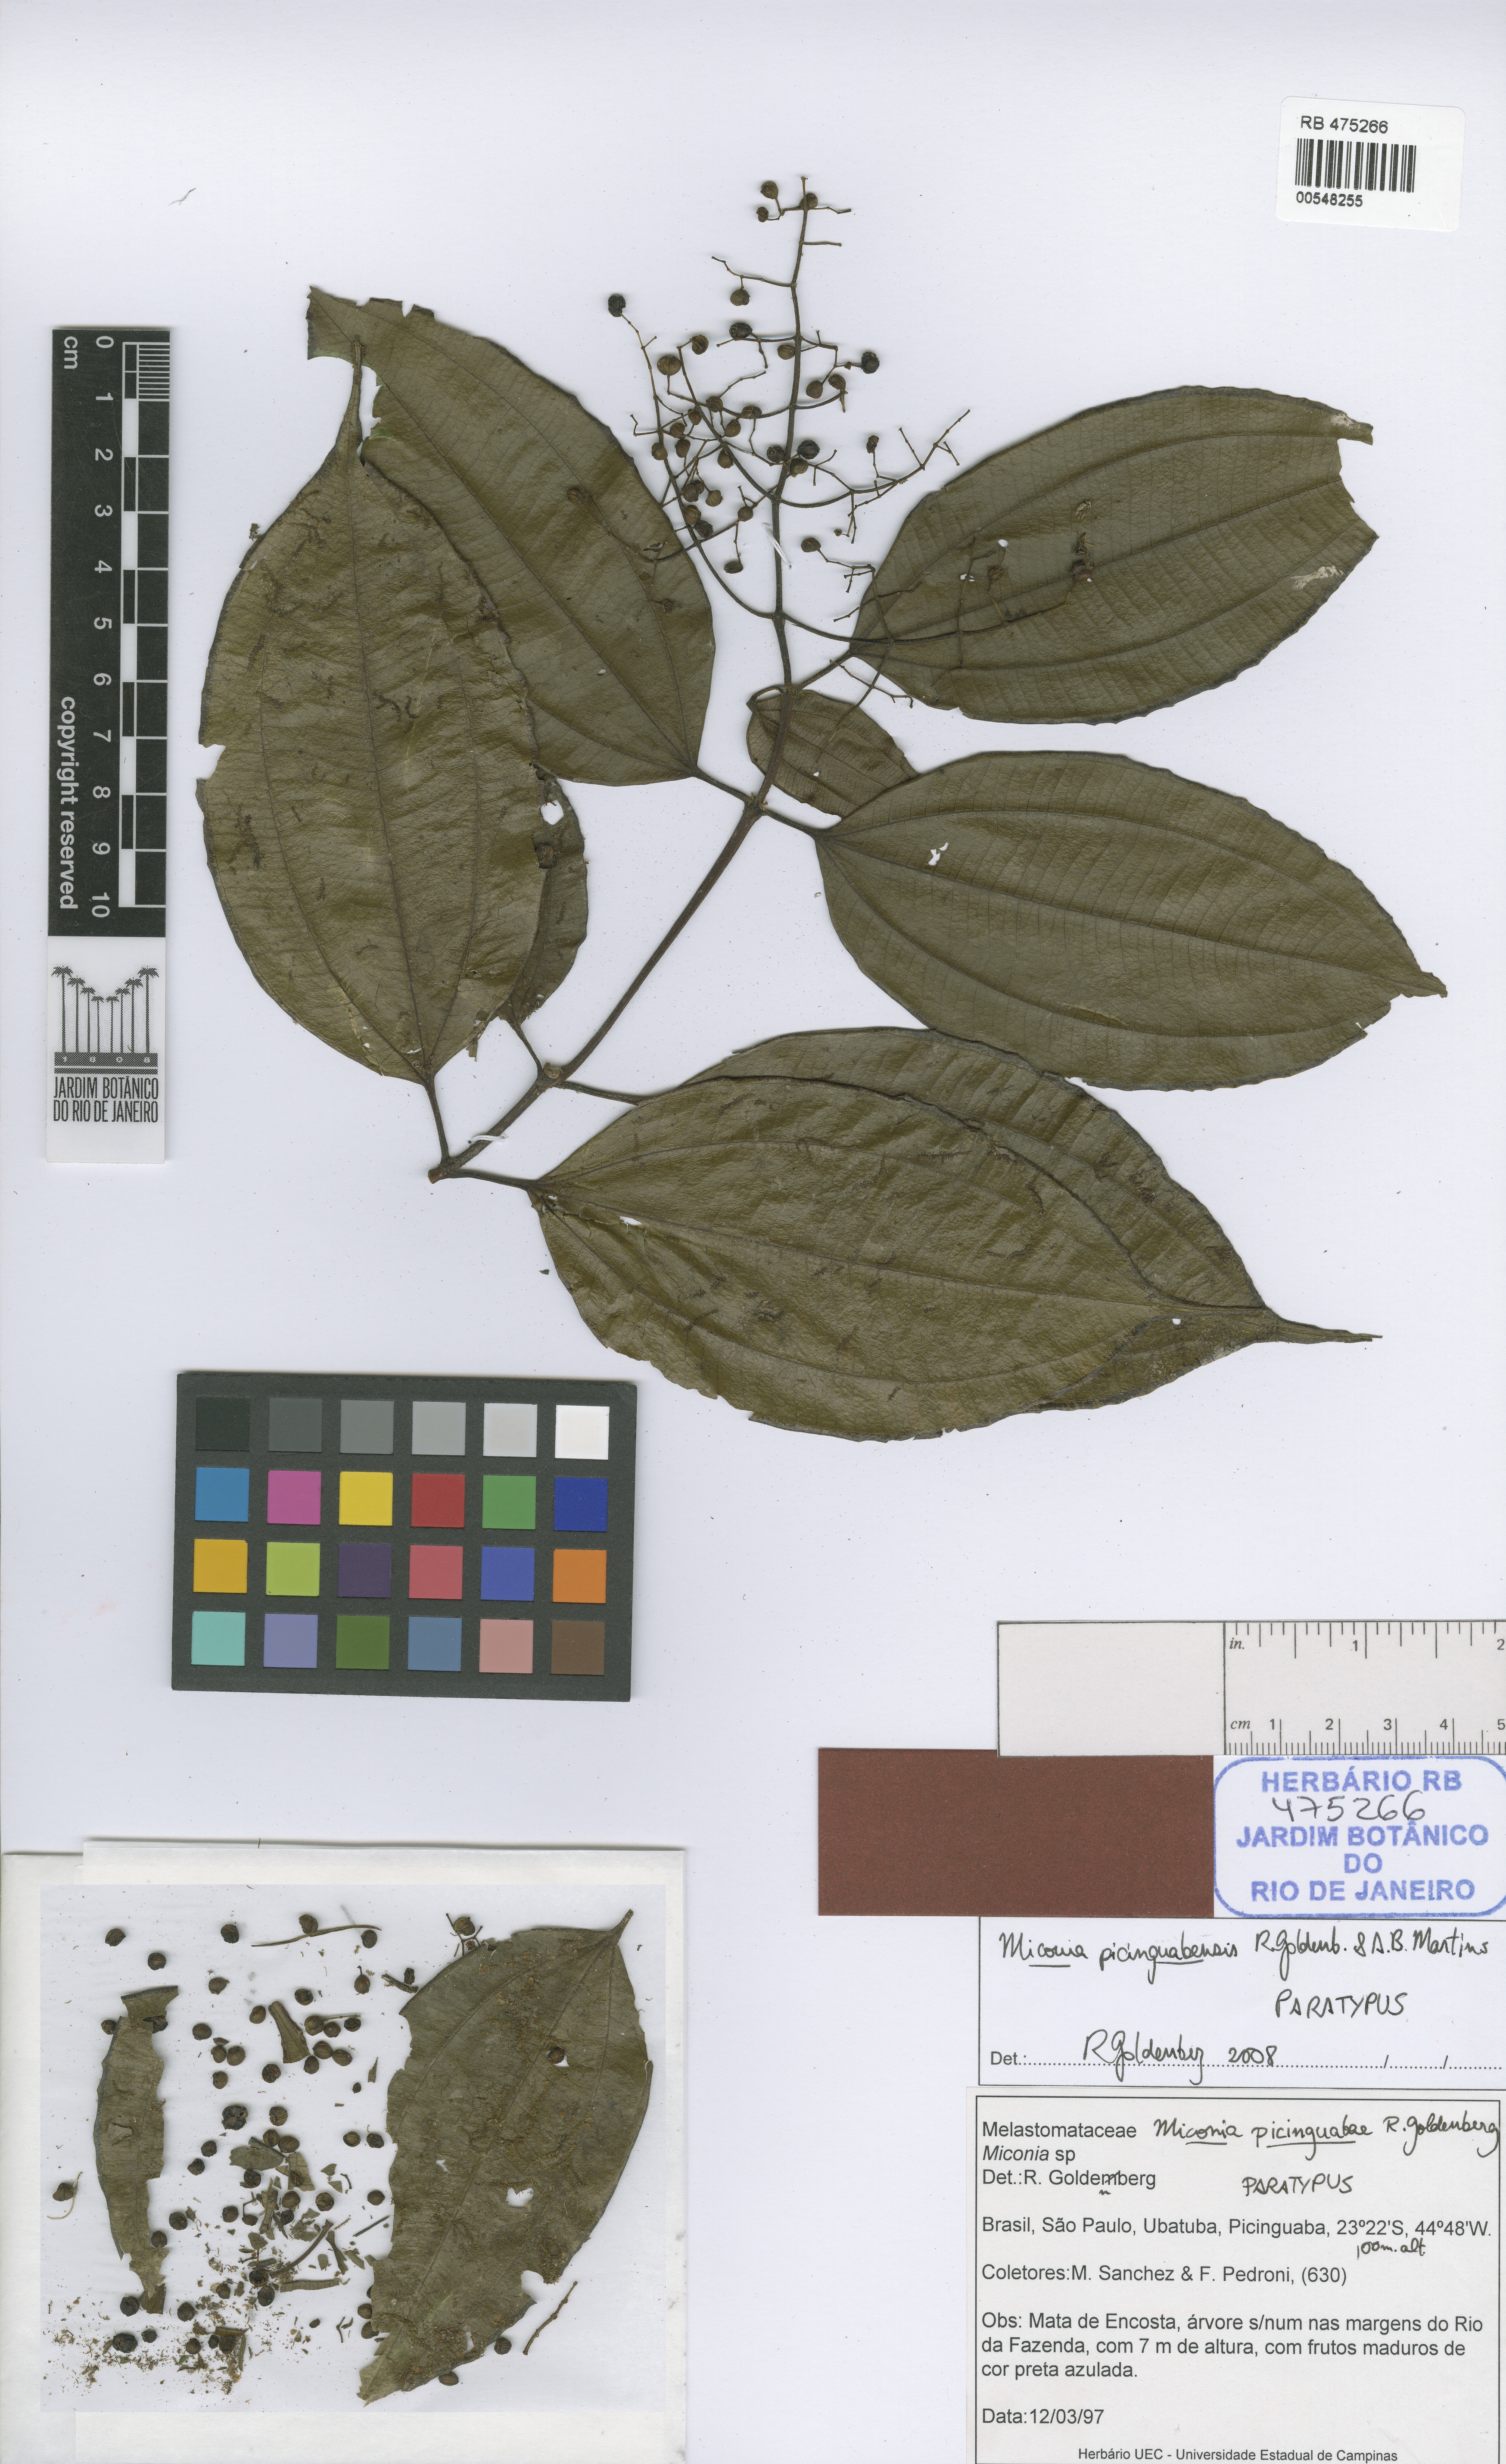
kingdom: Plantae
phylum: Tracheophyta
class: Magnoliopsida
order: Myrtales
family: Melastomataceae
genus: Miconia
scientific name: Miconia picinguabensis
